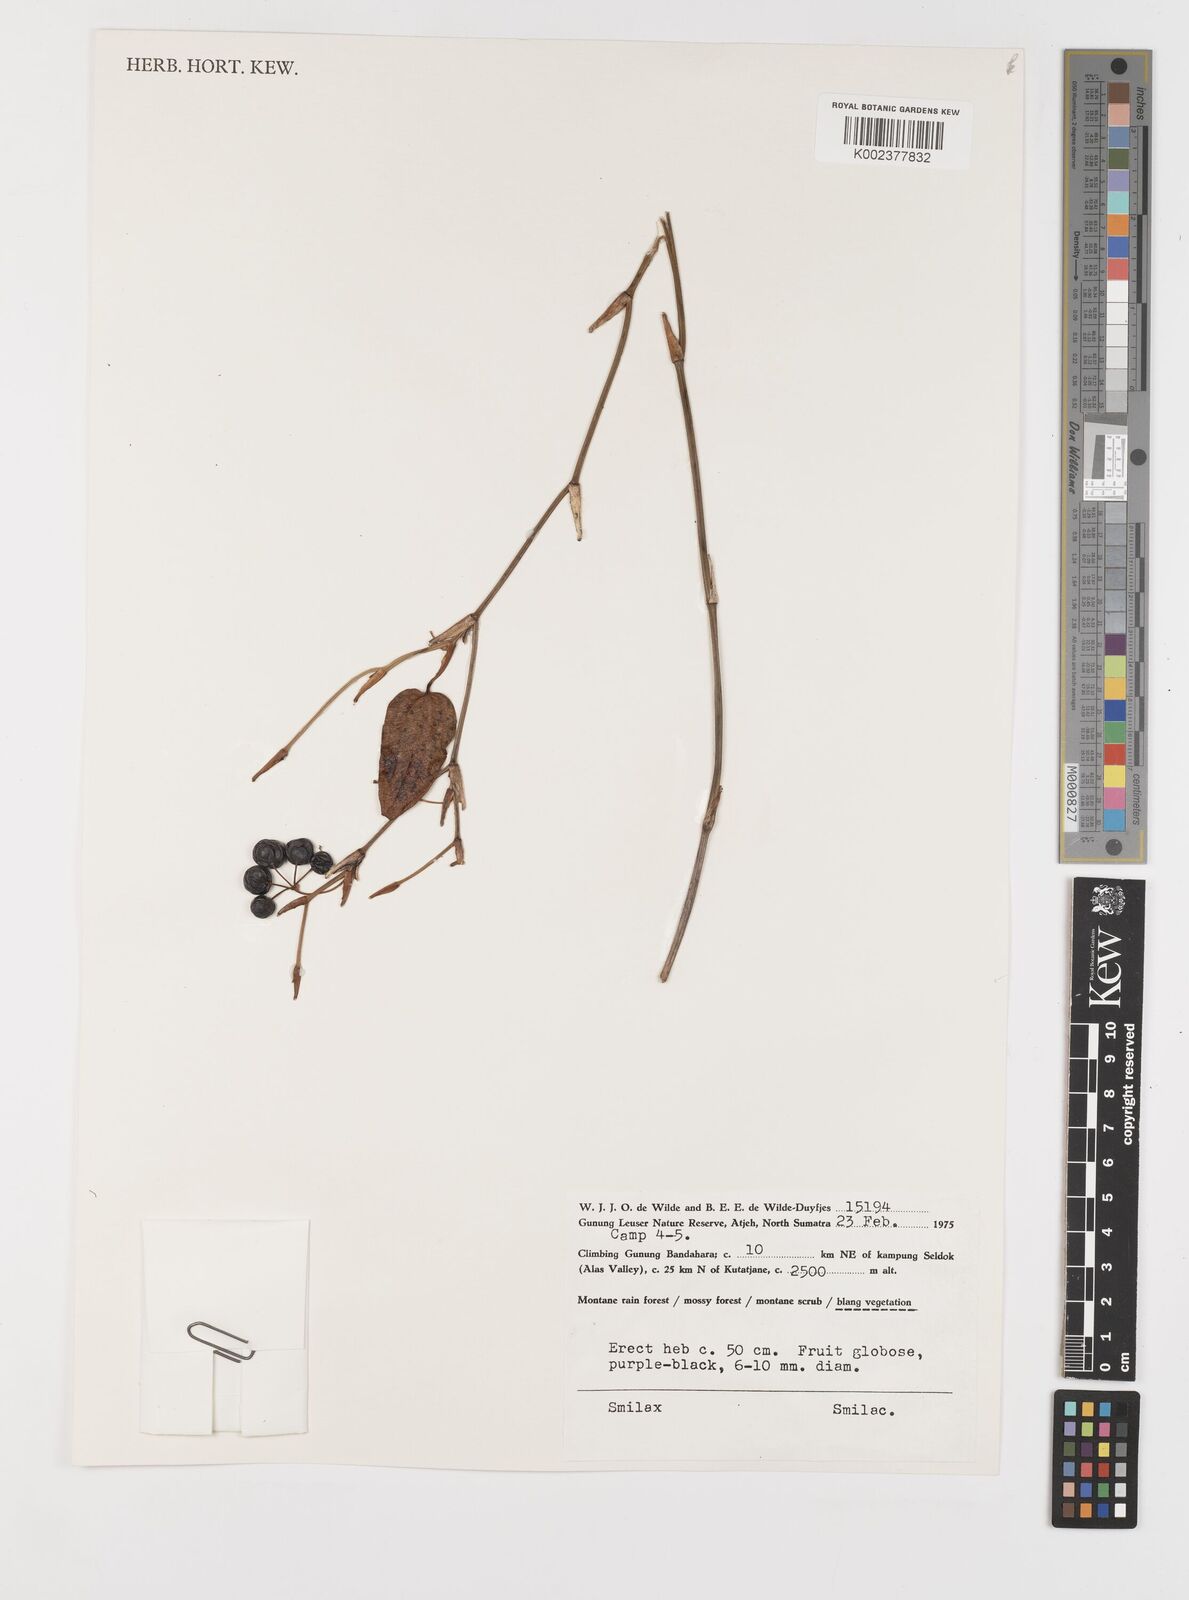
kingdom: Plantae
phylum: Tracheophyta
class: Liliopsida
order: Liliales
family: Smilacaceae
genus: Smilax
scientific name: Smilax
